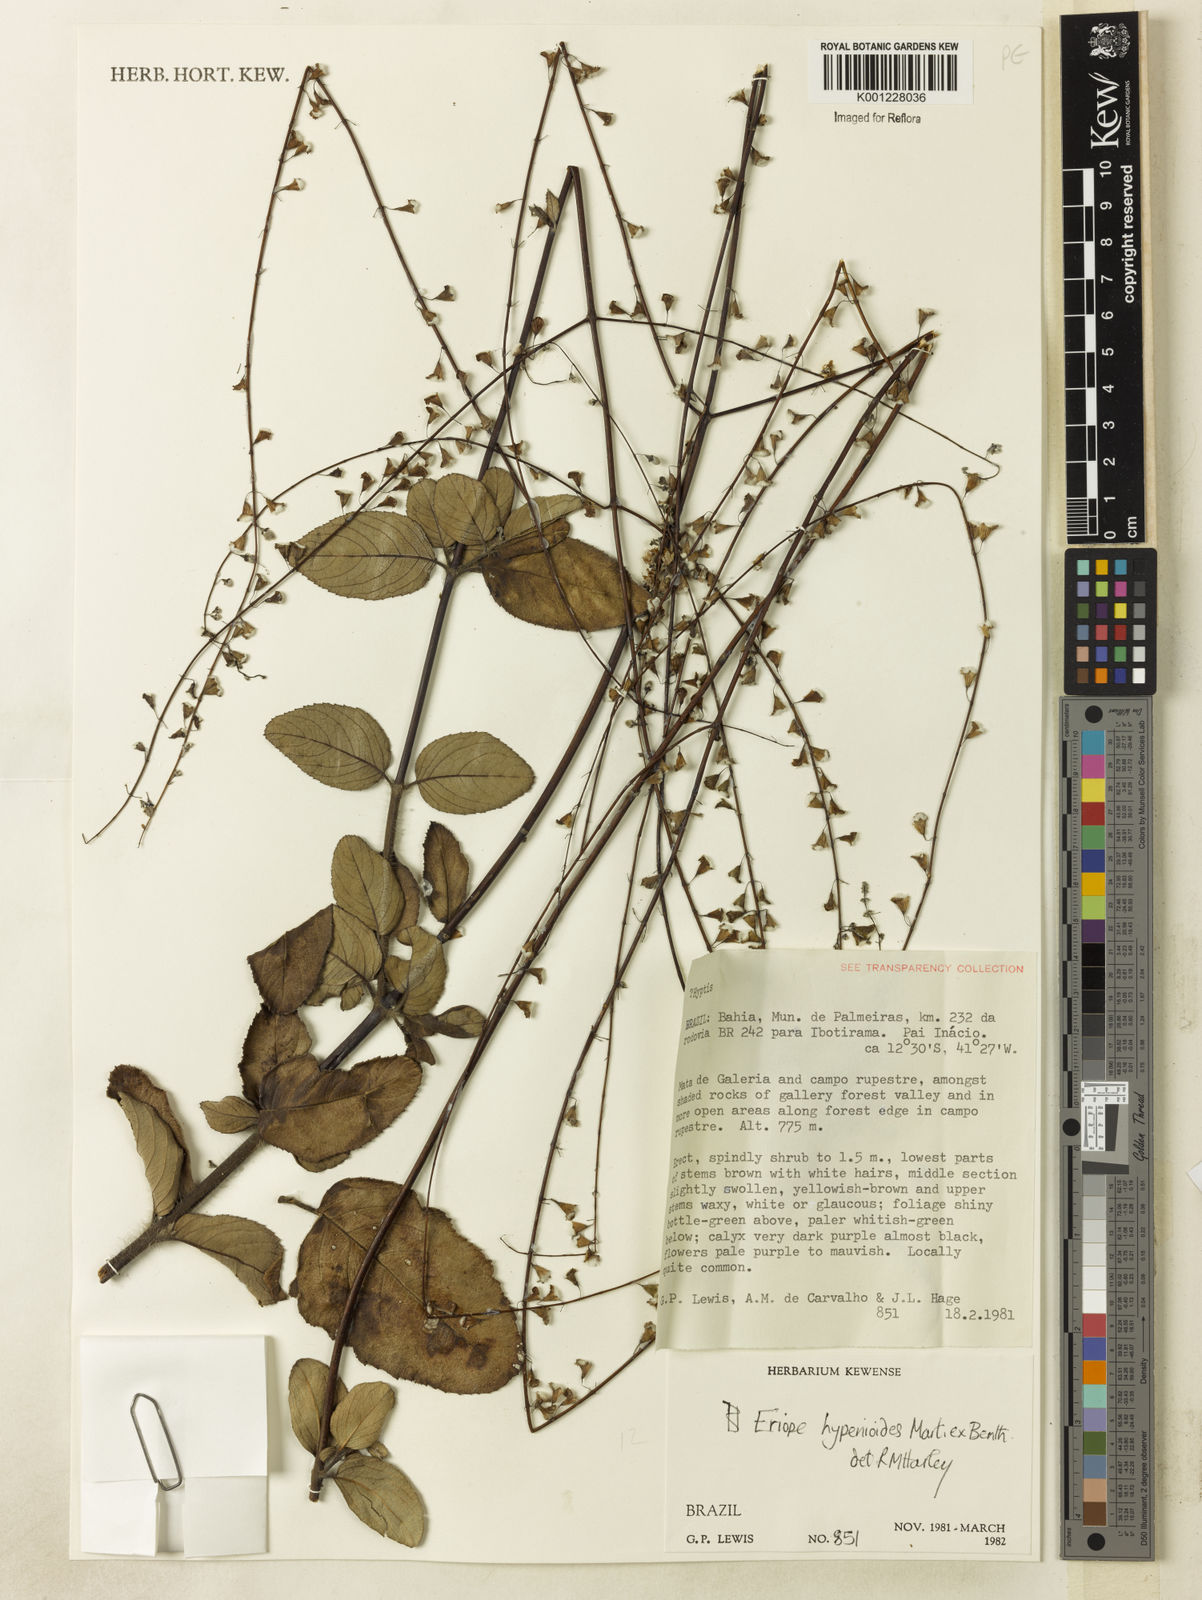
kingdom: Plantae
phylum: Tracheophyta
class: Magnoliopsida
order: Lamiales
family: Lamiaceae
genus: Eriope
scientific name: Eriope hypenioides
